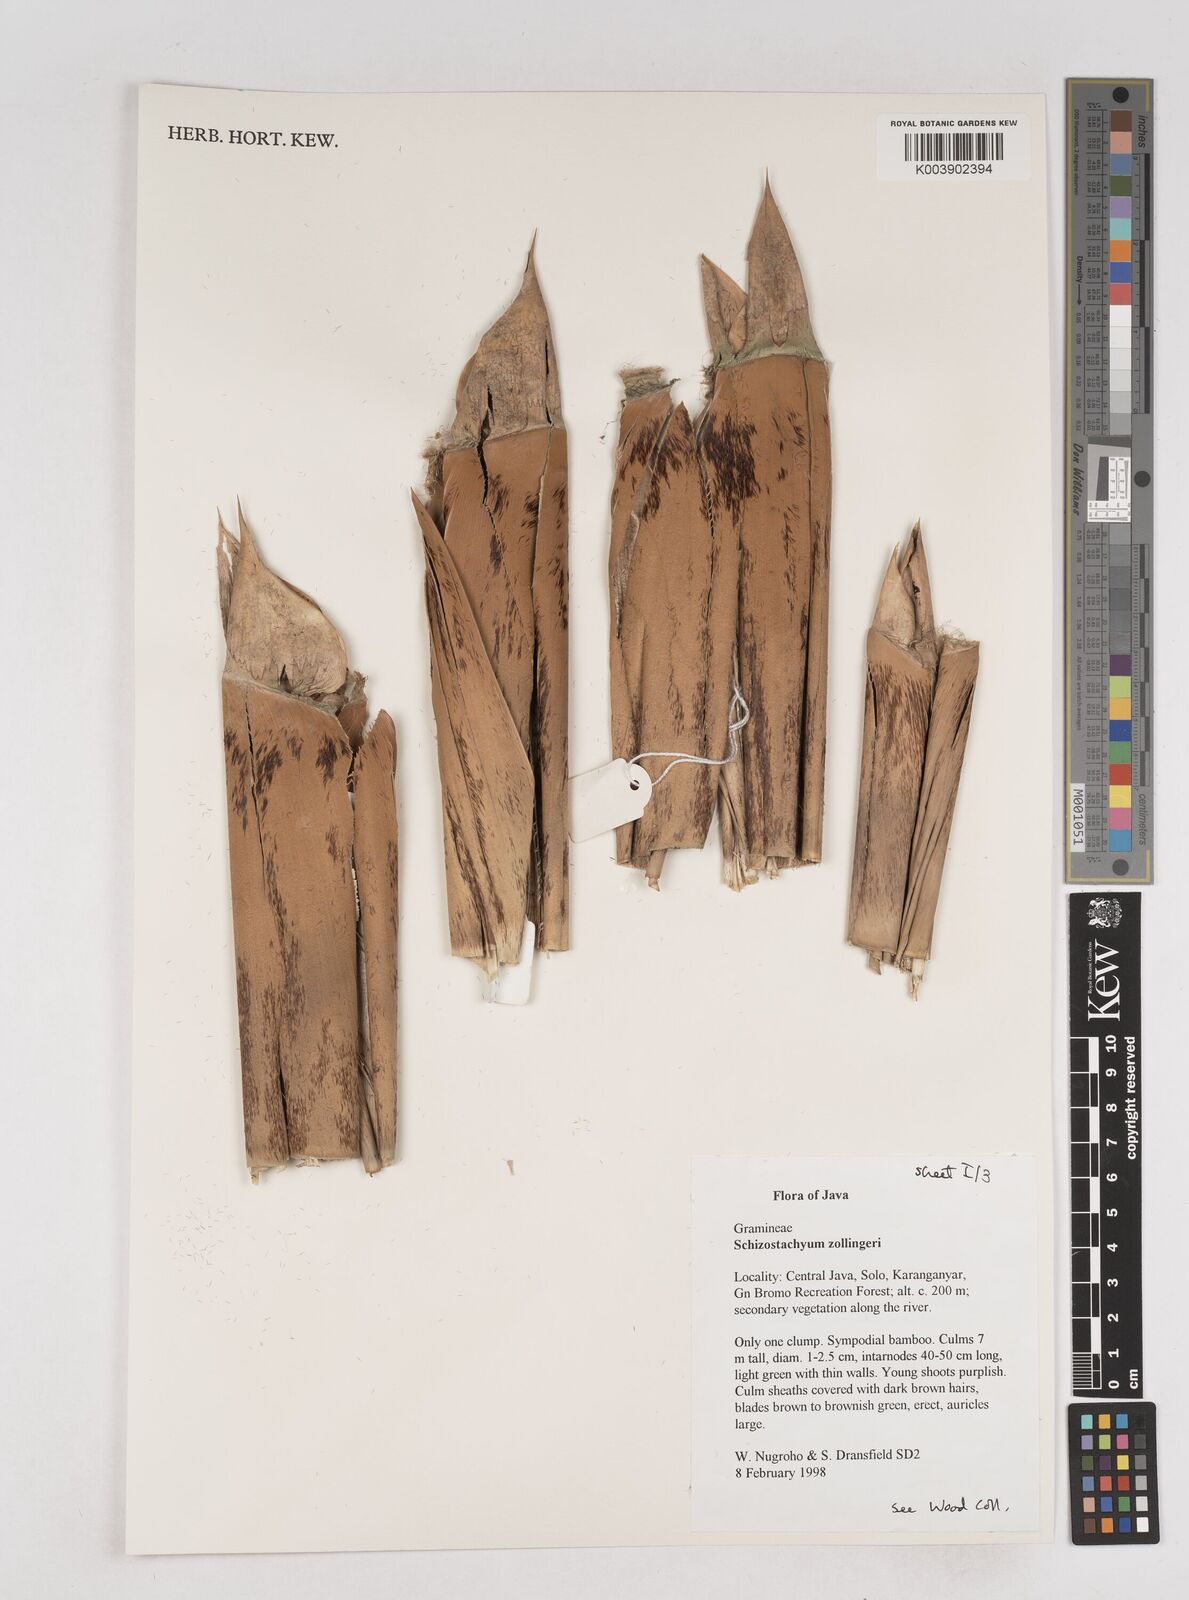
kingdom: Plantae
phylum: Tracheophyta
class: Liliopsida
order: Poales
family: Poaceae
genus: Schizostachyum
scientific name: Schizostachyum zollingeri
